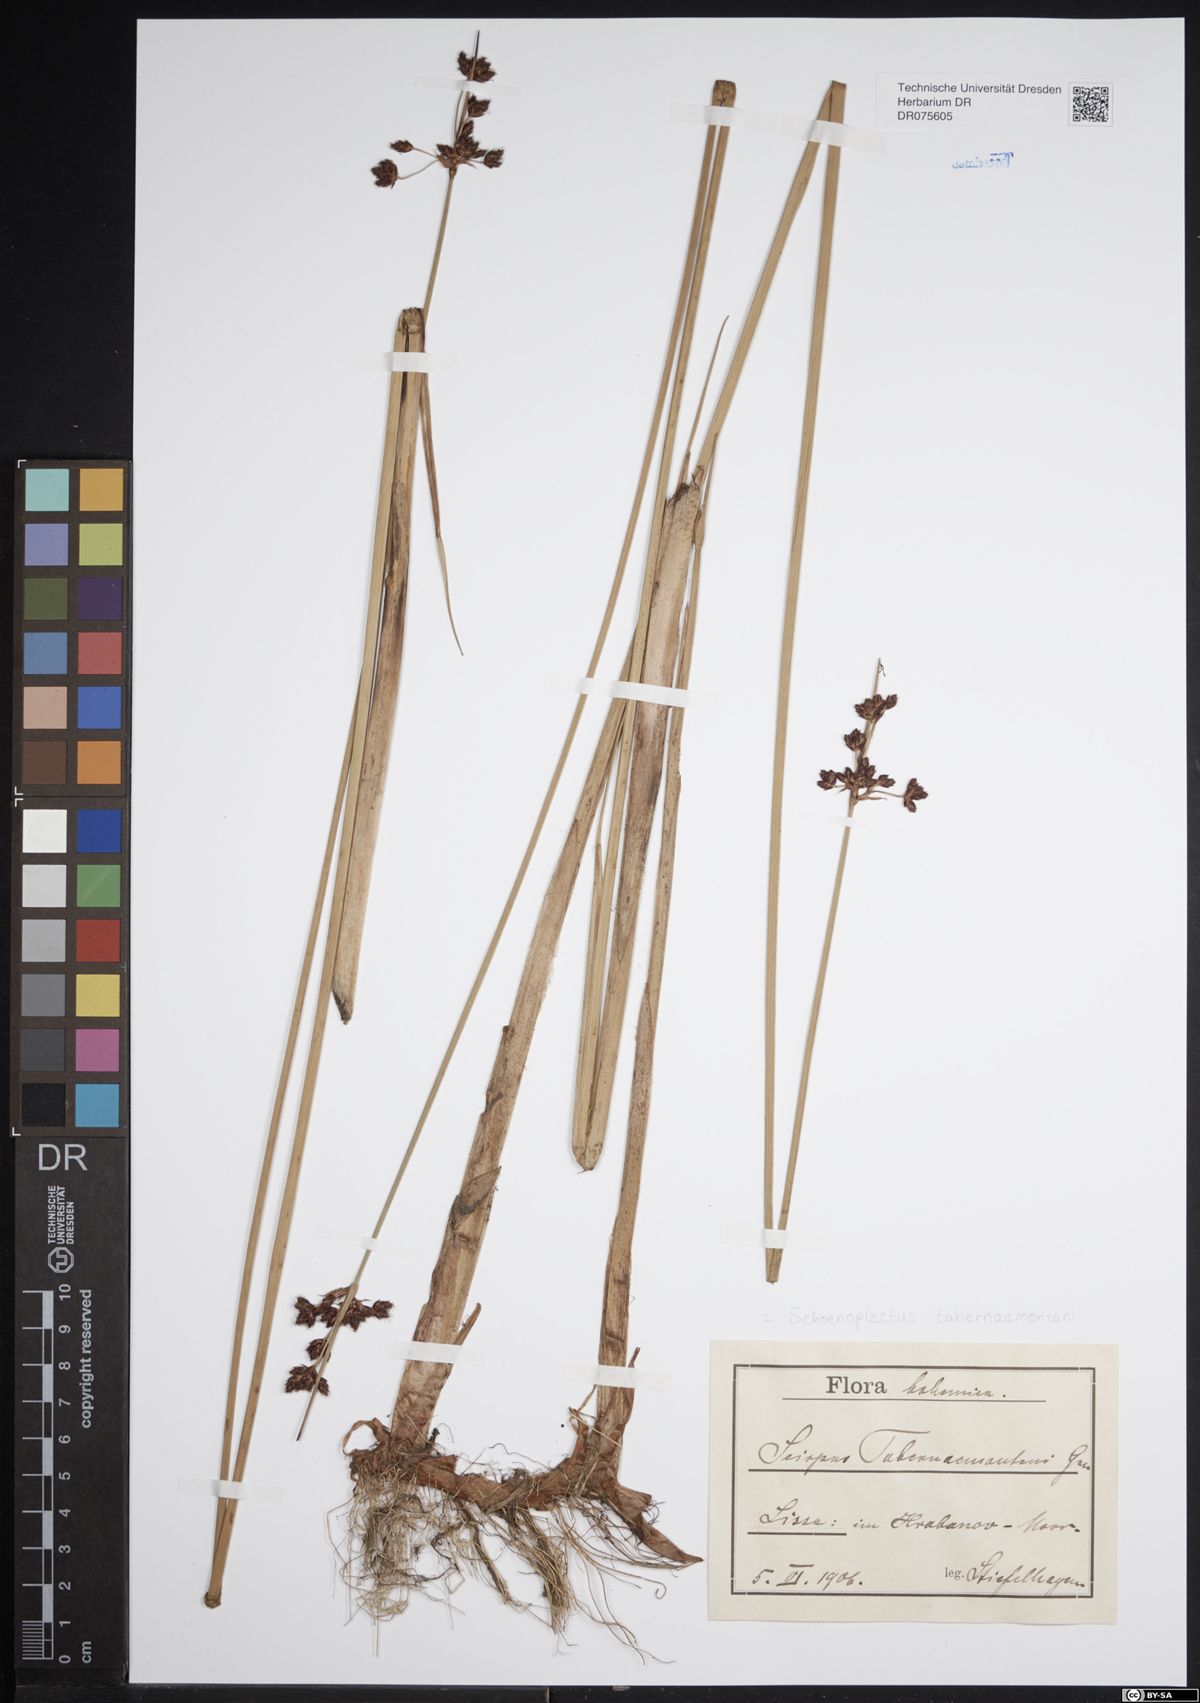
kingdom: Plantae
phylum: Tracheophyta
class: Liliopsida
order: Poales
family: Cyperaceae
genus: Schoenoplectus
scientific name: Schoenoplectus tabernaemontani
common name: Grey club-rush
